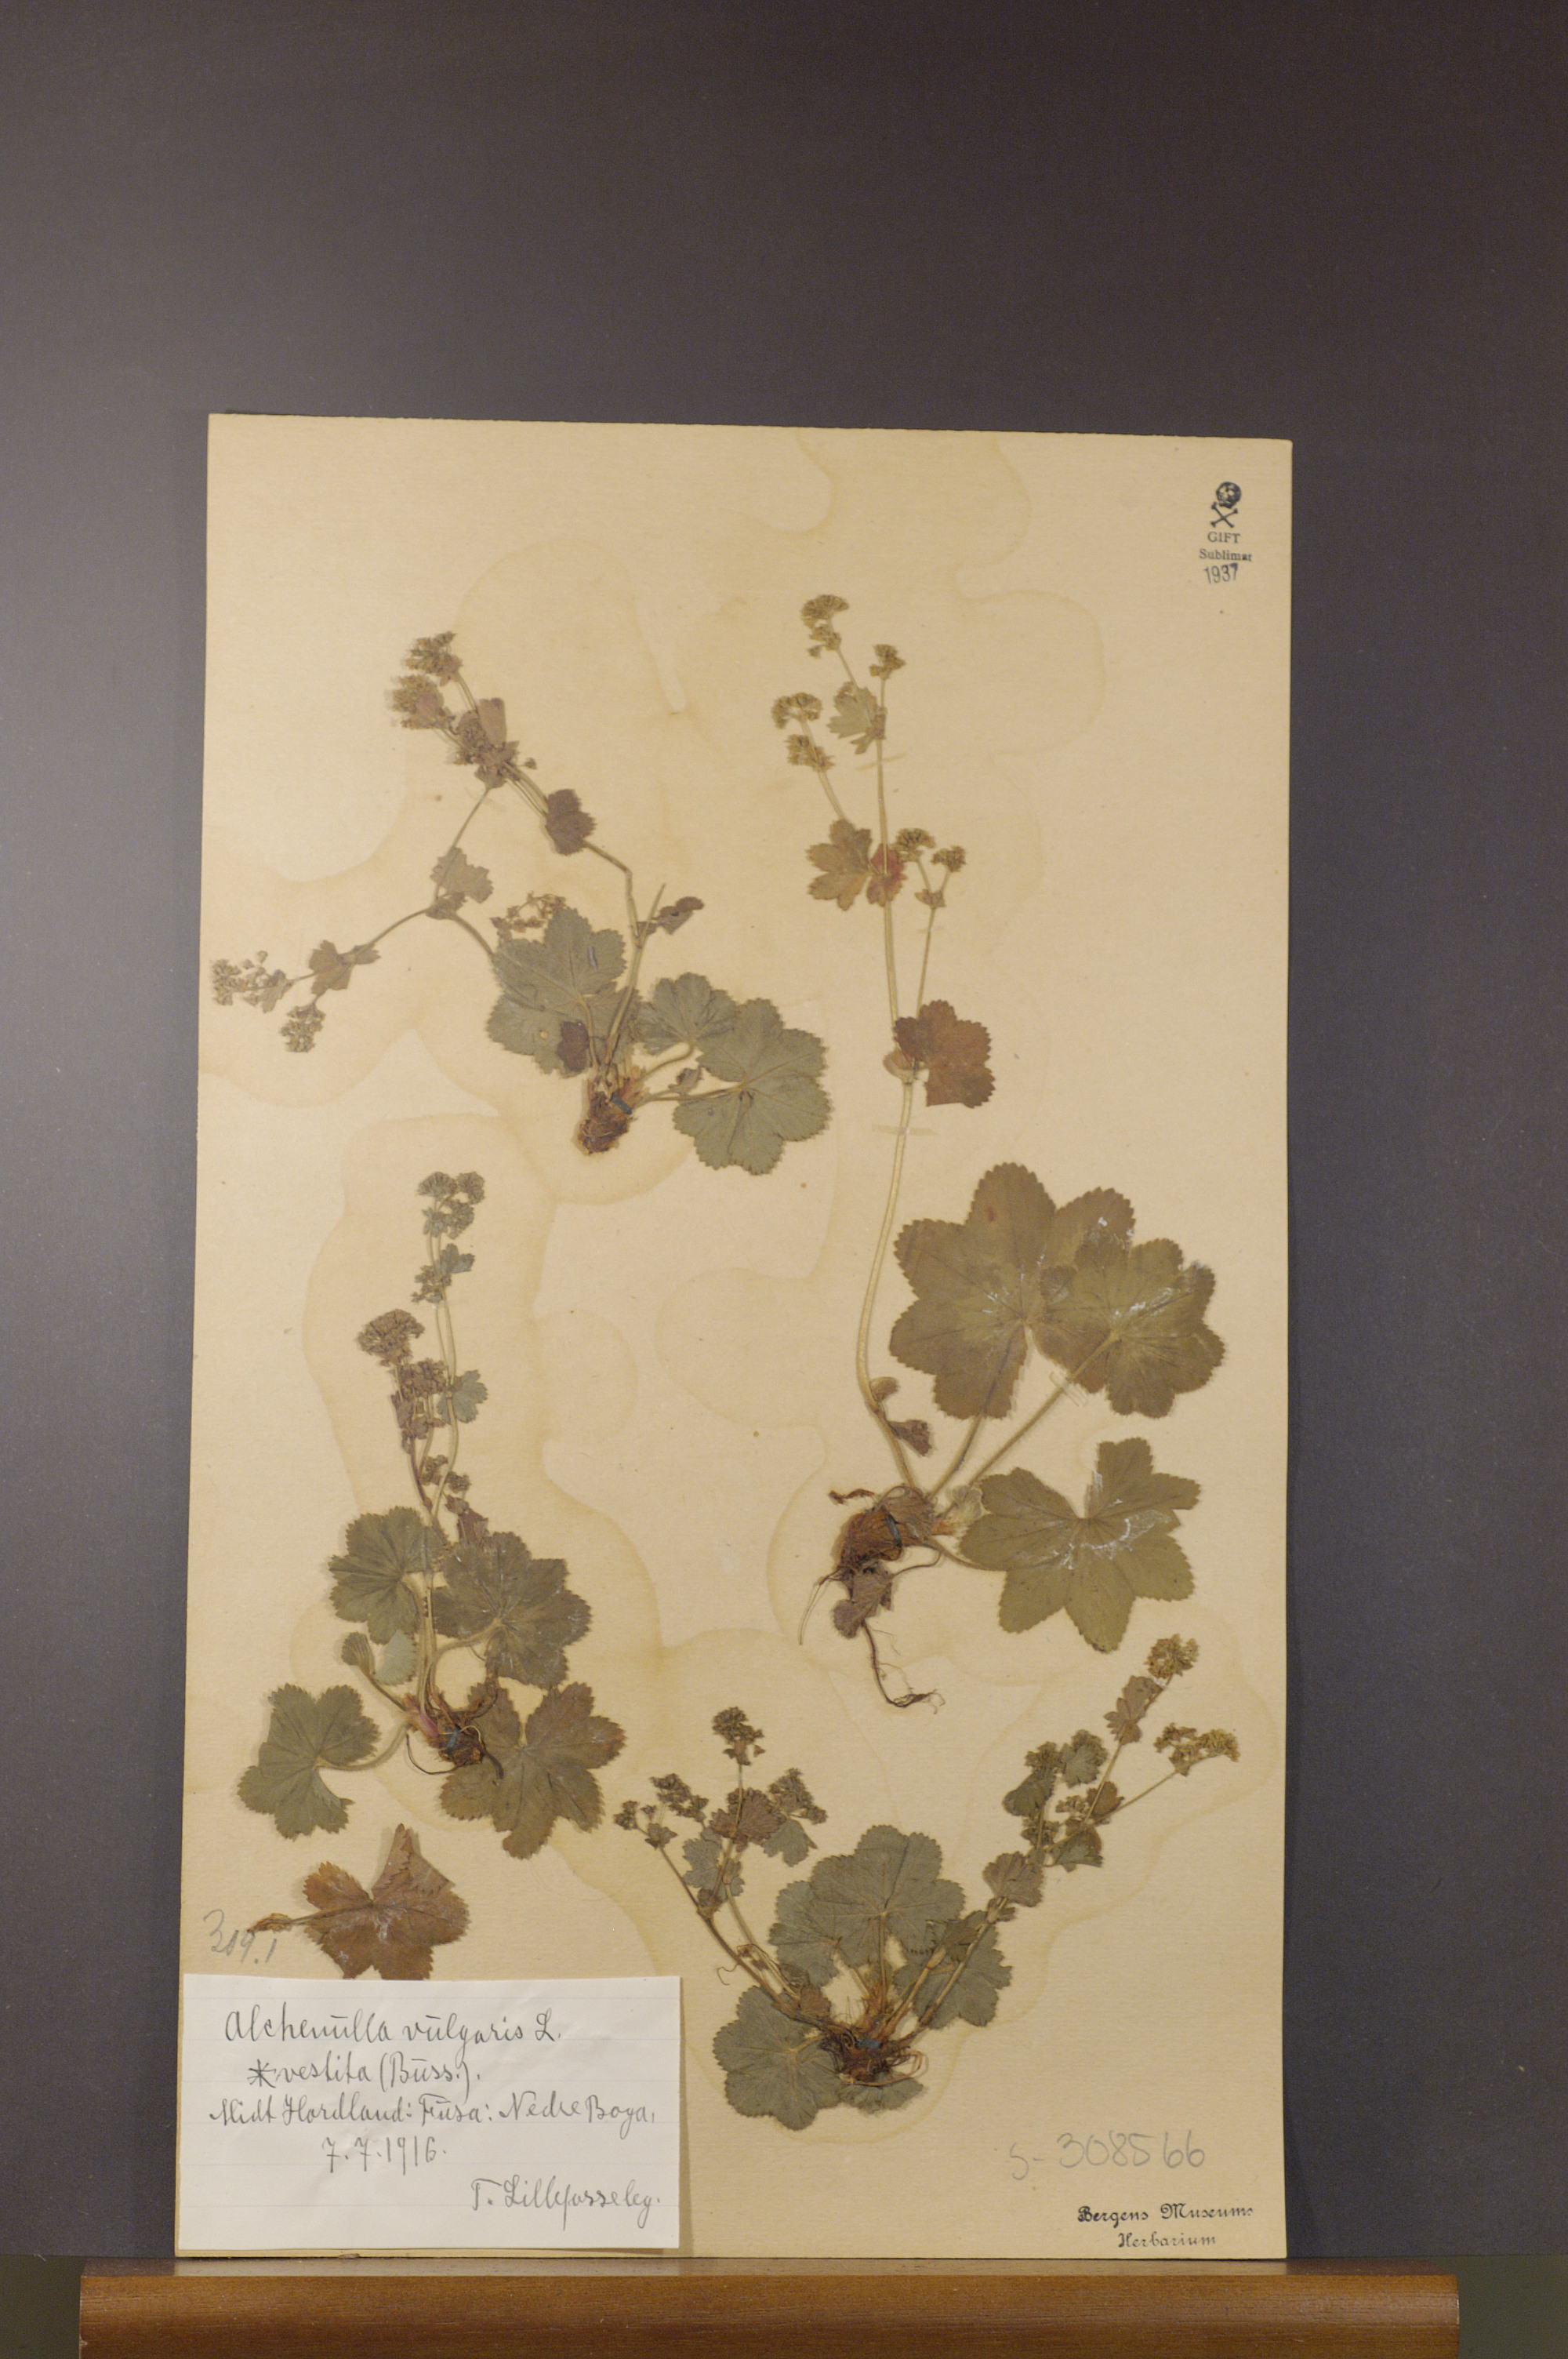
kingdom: Plantae
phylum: Tracheophyta
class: Magnoliopsida
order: Rosales
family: Rosaceae
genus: Alchemilla
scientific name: Alchemilla filicaulis
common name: Hairy lady's-mantle
